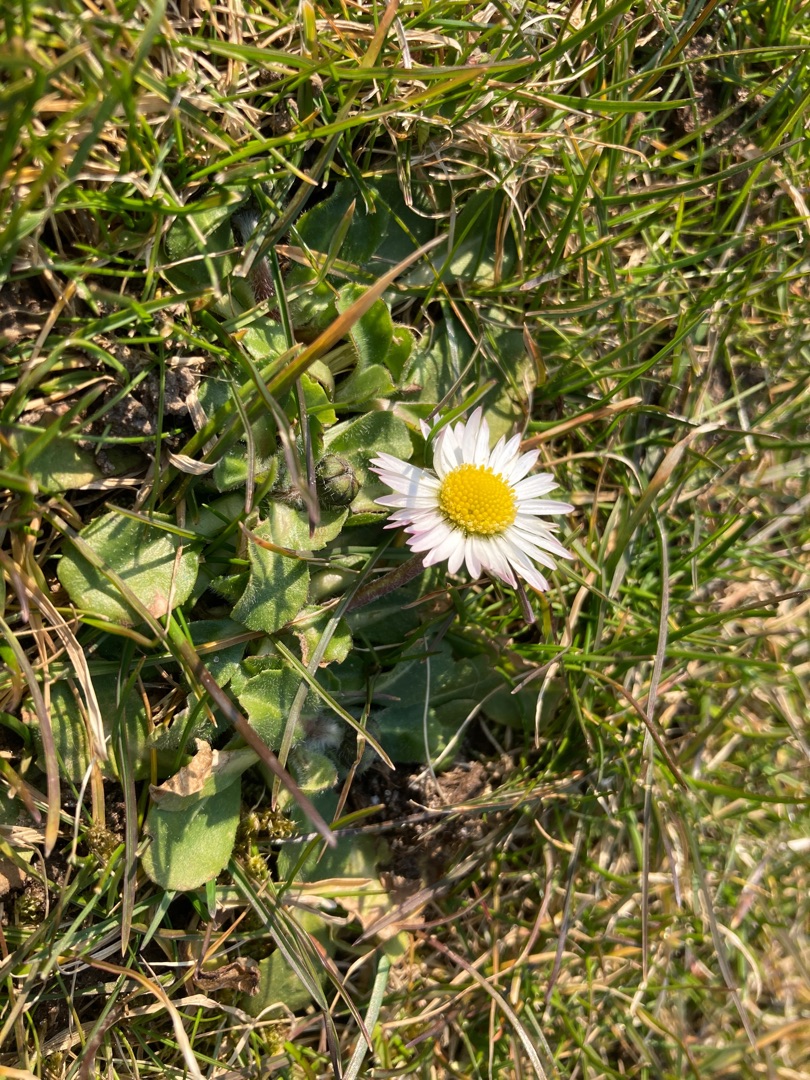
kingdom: Plantae
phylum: Tracheophyta
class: Magnoliopsida
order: Asterales
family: Asteraceae
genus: Bellis
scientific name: Bellis perennis
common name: Tusindfryd
